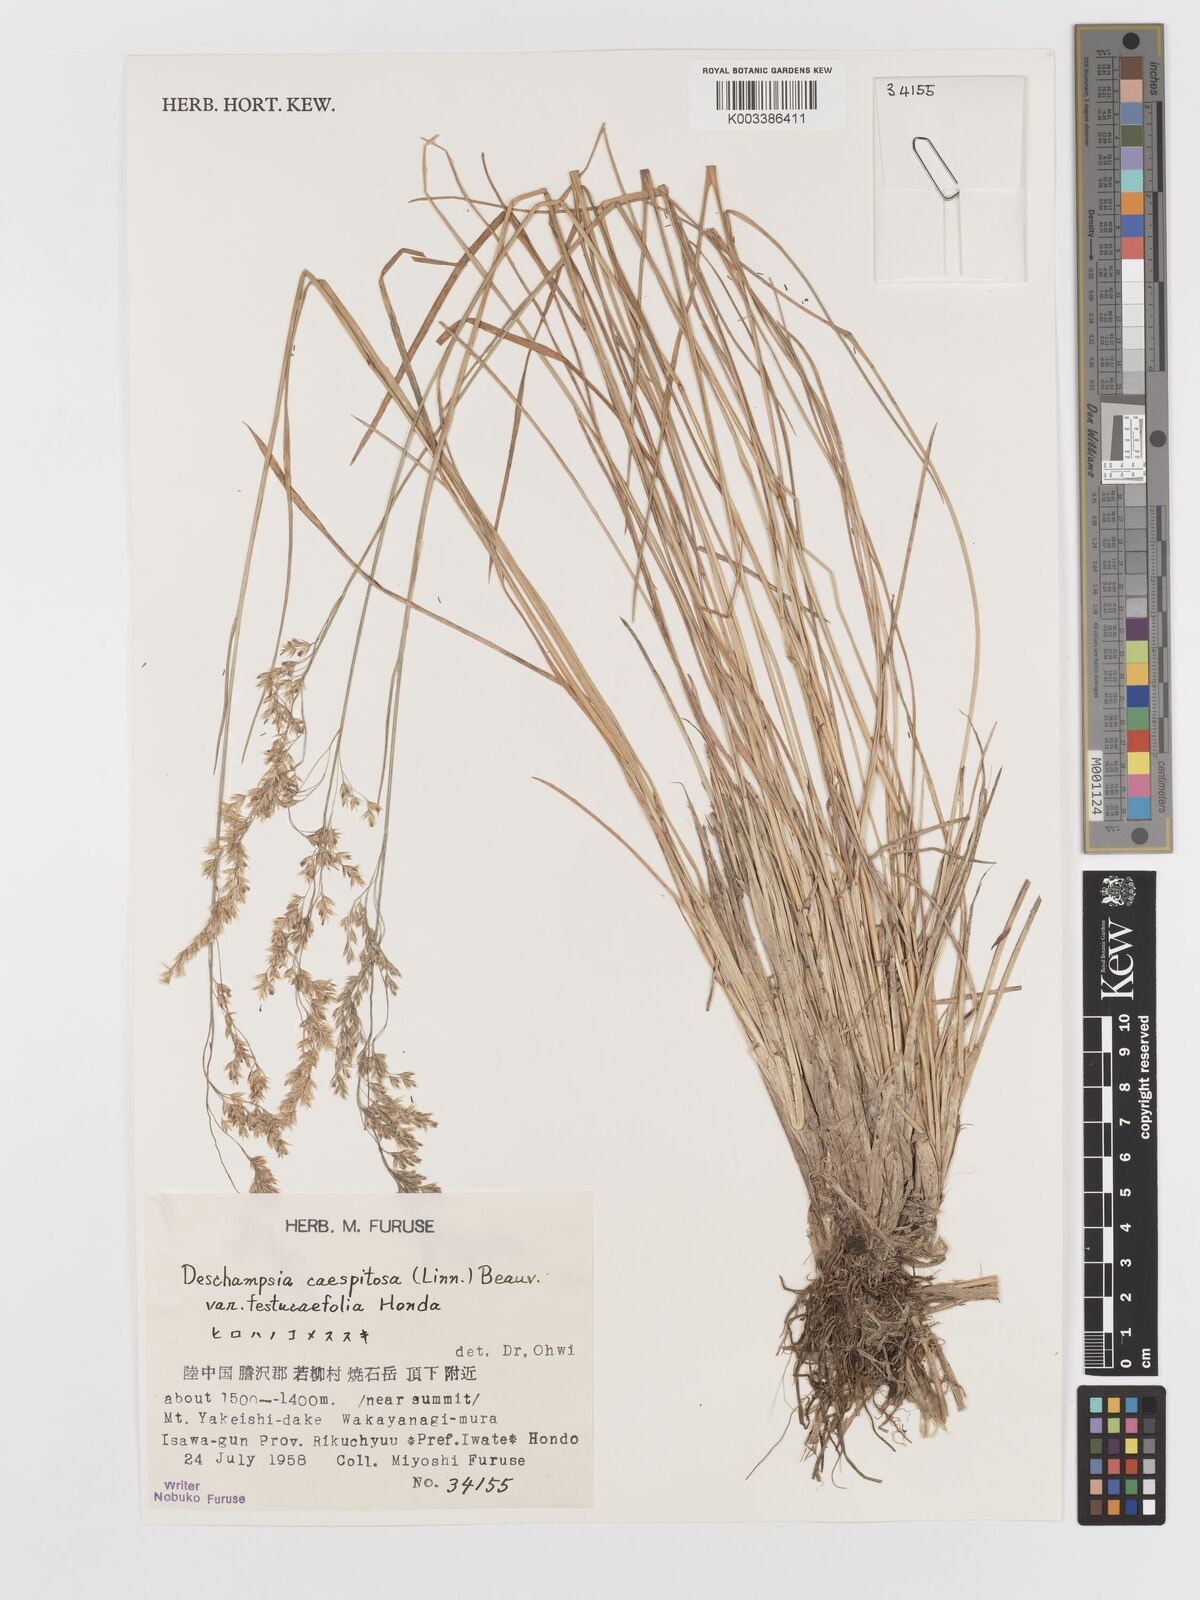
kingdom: Plantae
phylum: Tracheophyta
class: Liliopsida
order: Poales
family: Poaceae
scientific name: Poaceae
